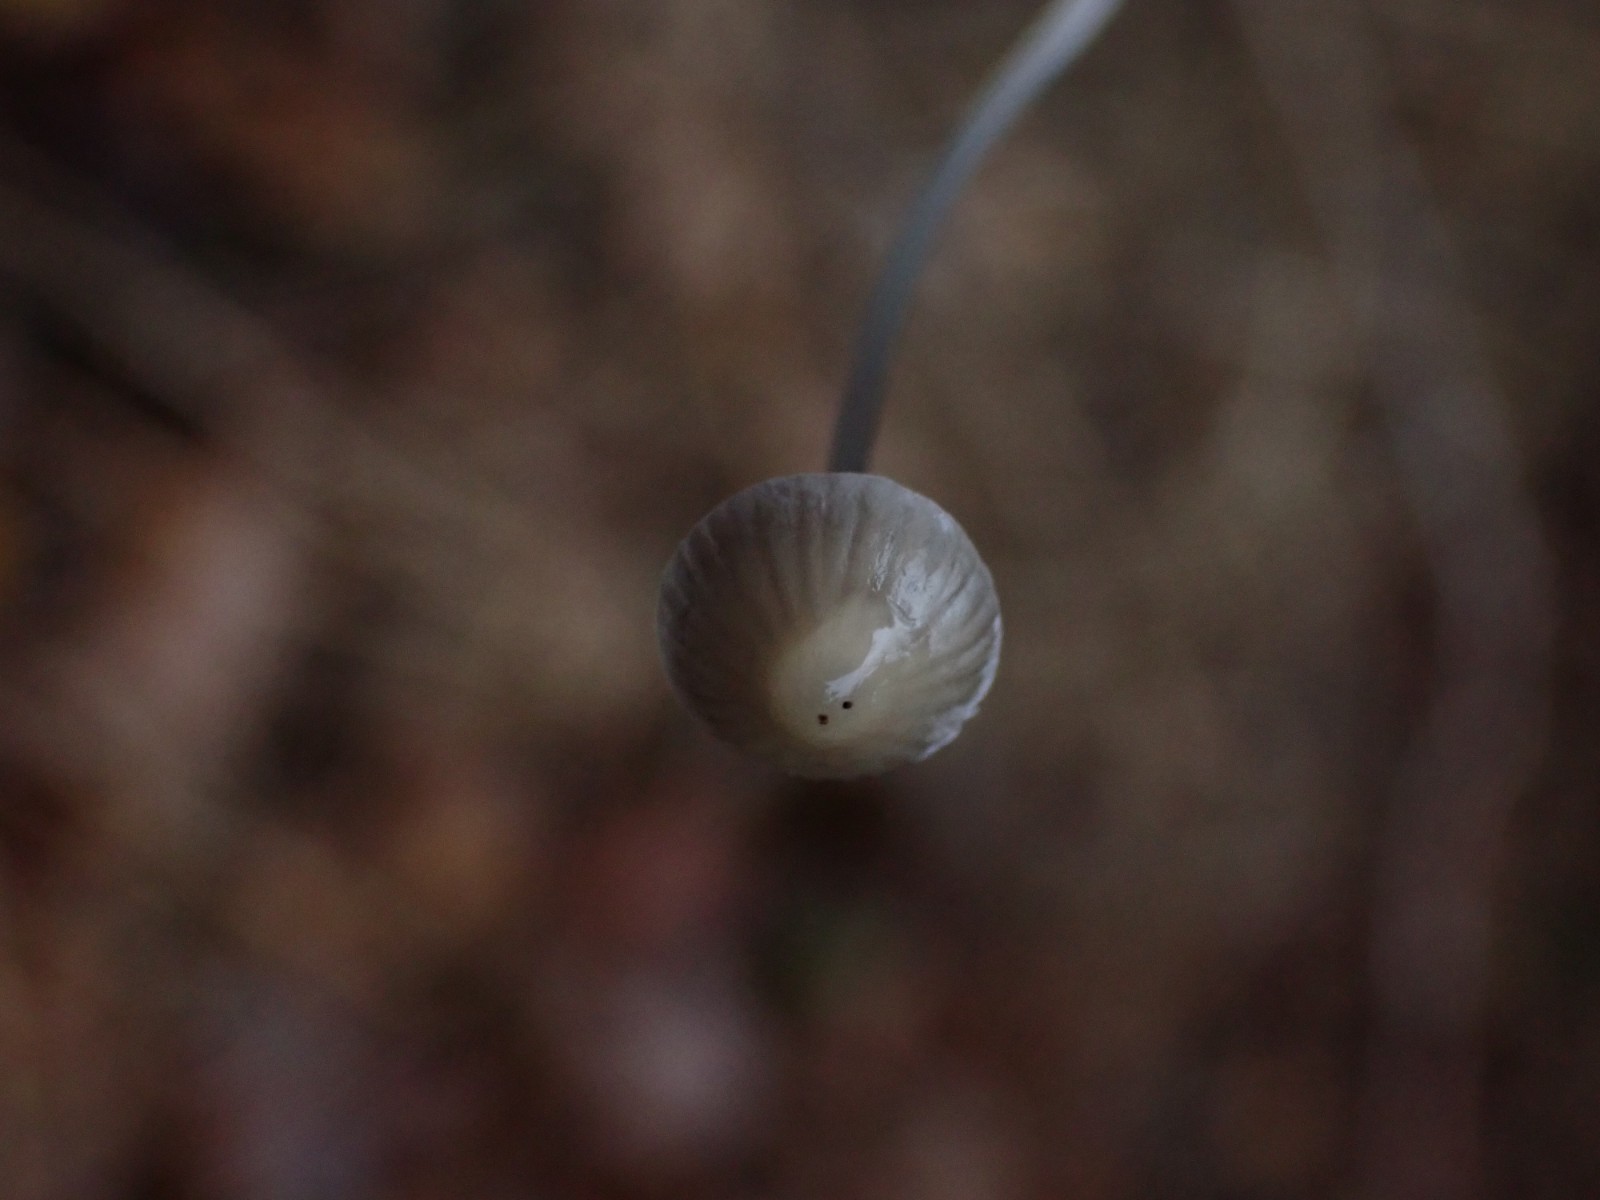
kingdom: Fungi
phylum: Basidiomycota
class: Agaricomycetes
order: Agaricales
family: Mycenaceae
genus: Mycena
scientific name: Mycena vitilis
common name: blankstokket huesvamp
